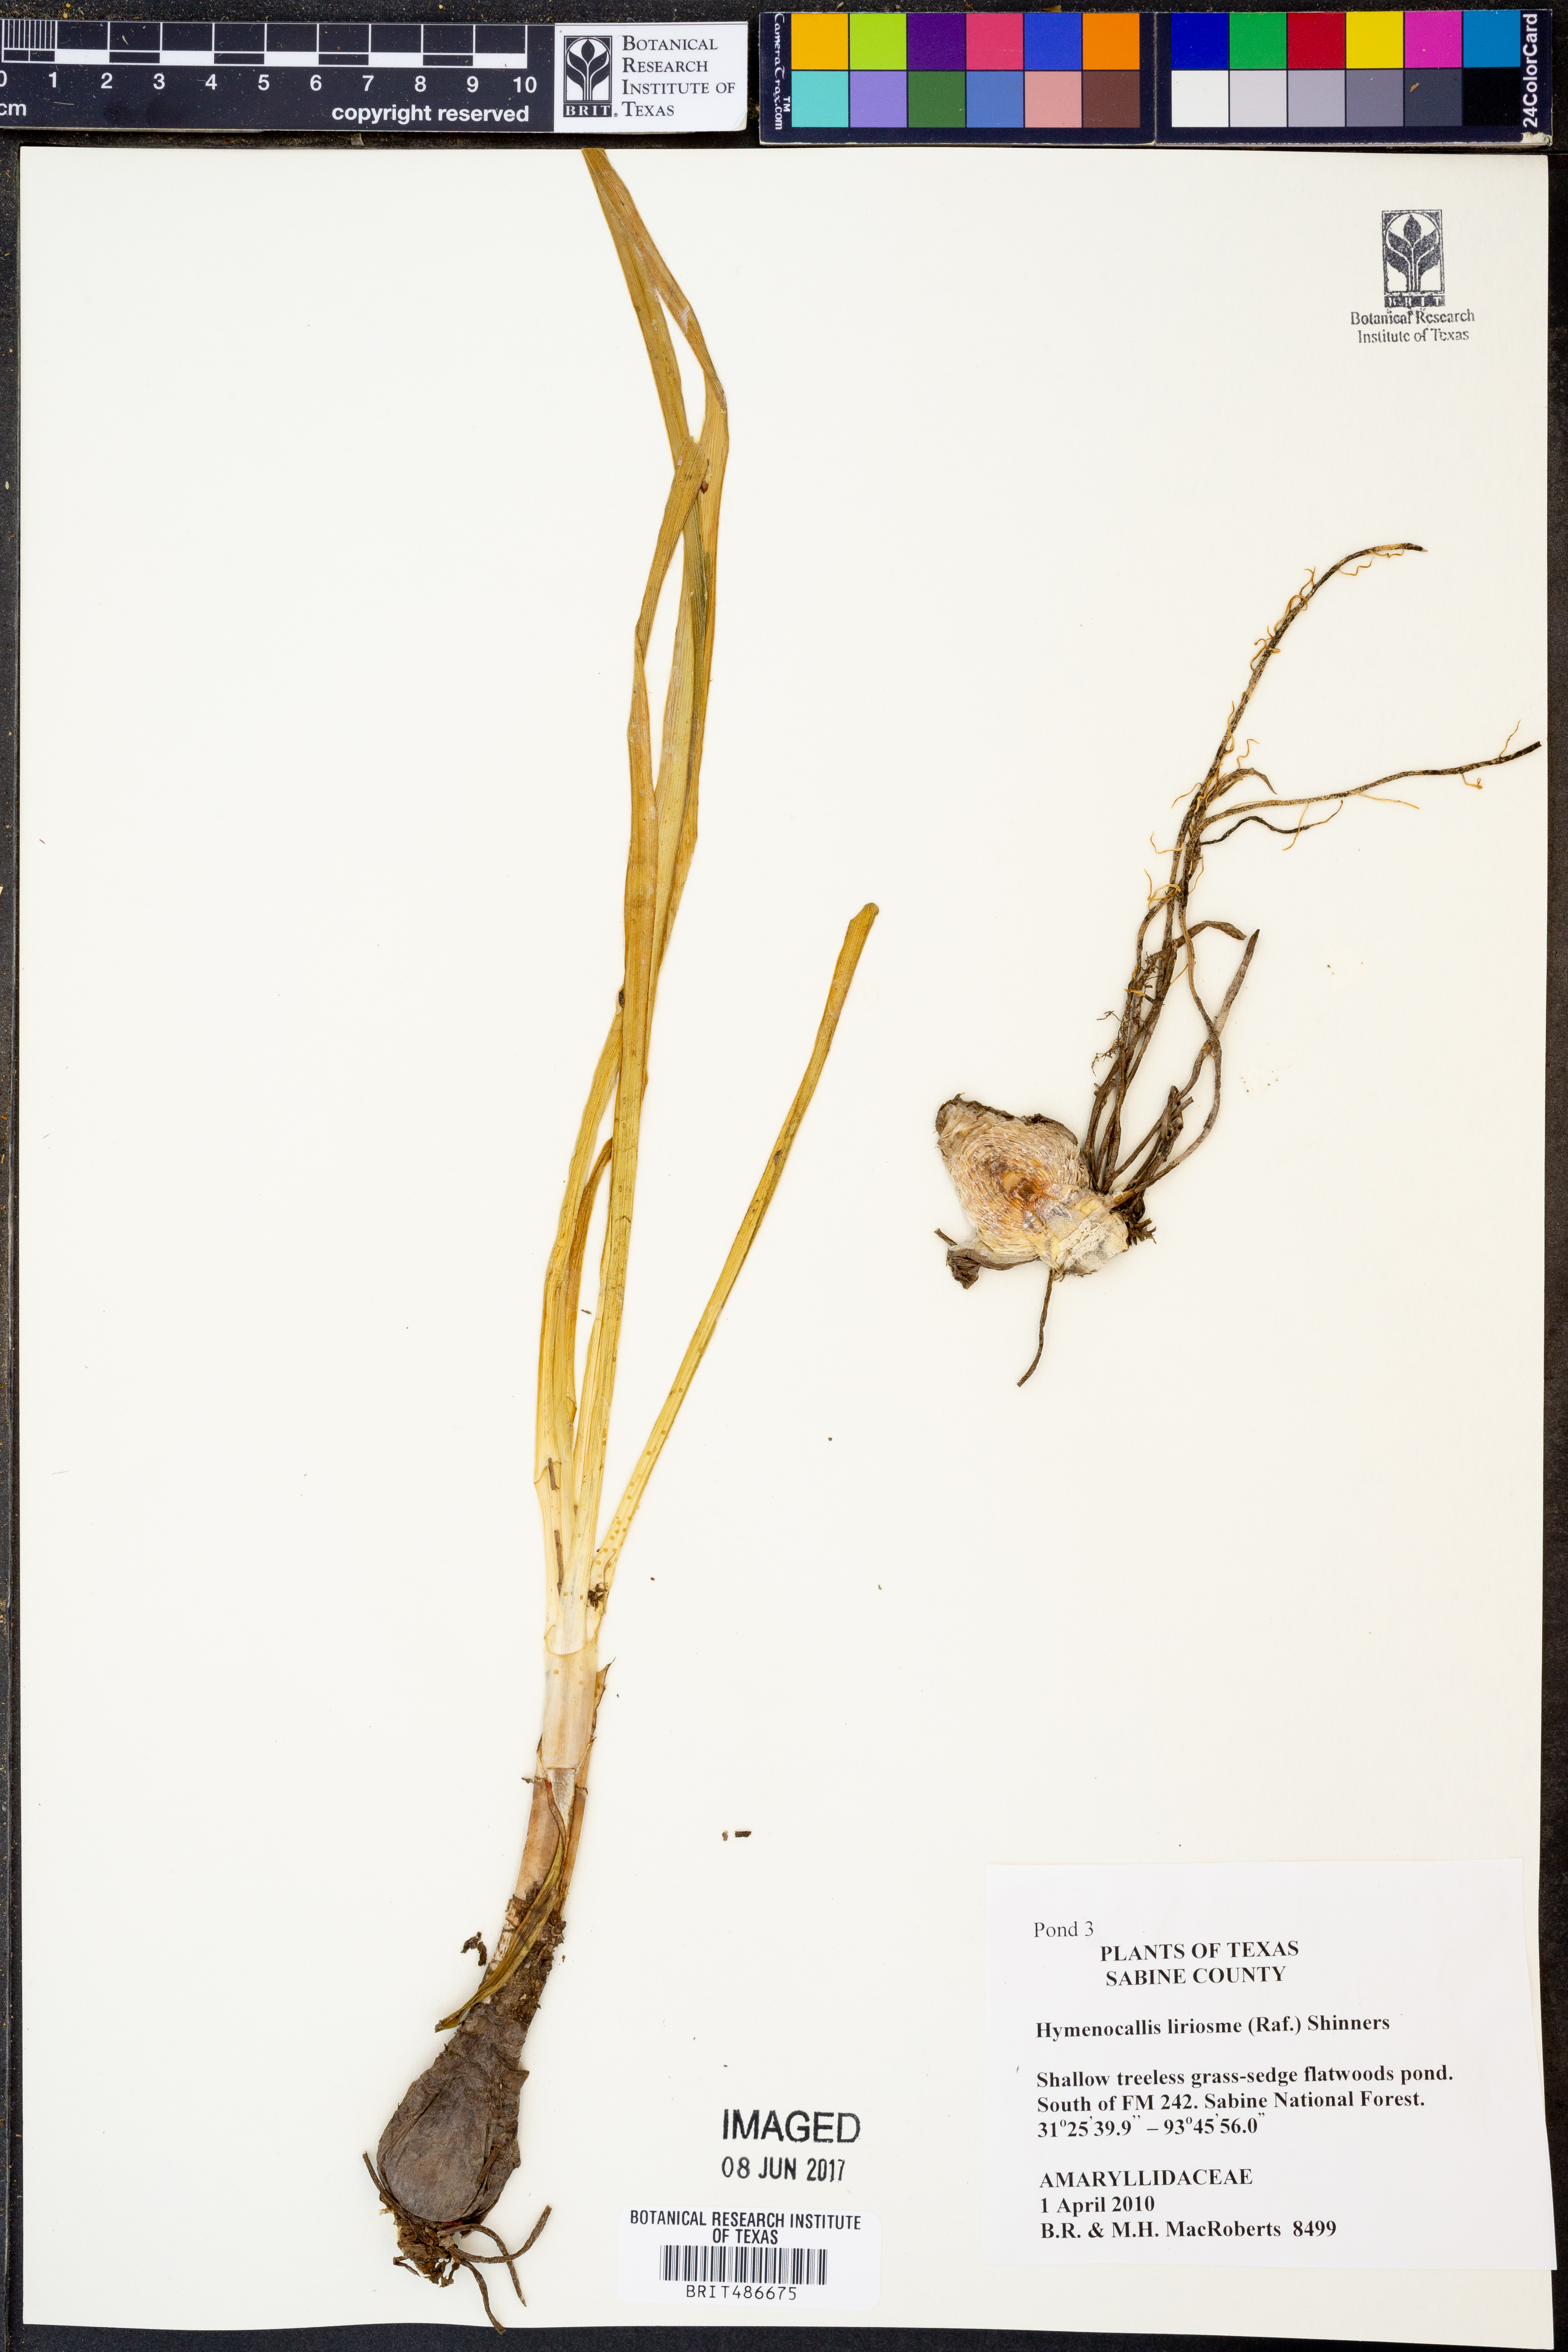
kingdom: Plantae
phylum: Tracheophyta
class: Liliopsida
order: Asparagales
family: Amaryllidaceae
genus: Hymenocallis
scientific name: Hymenocallis liriosme
